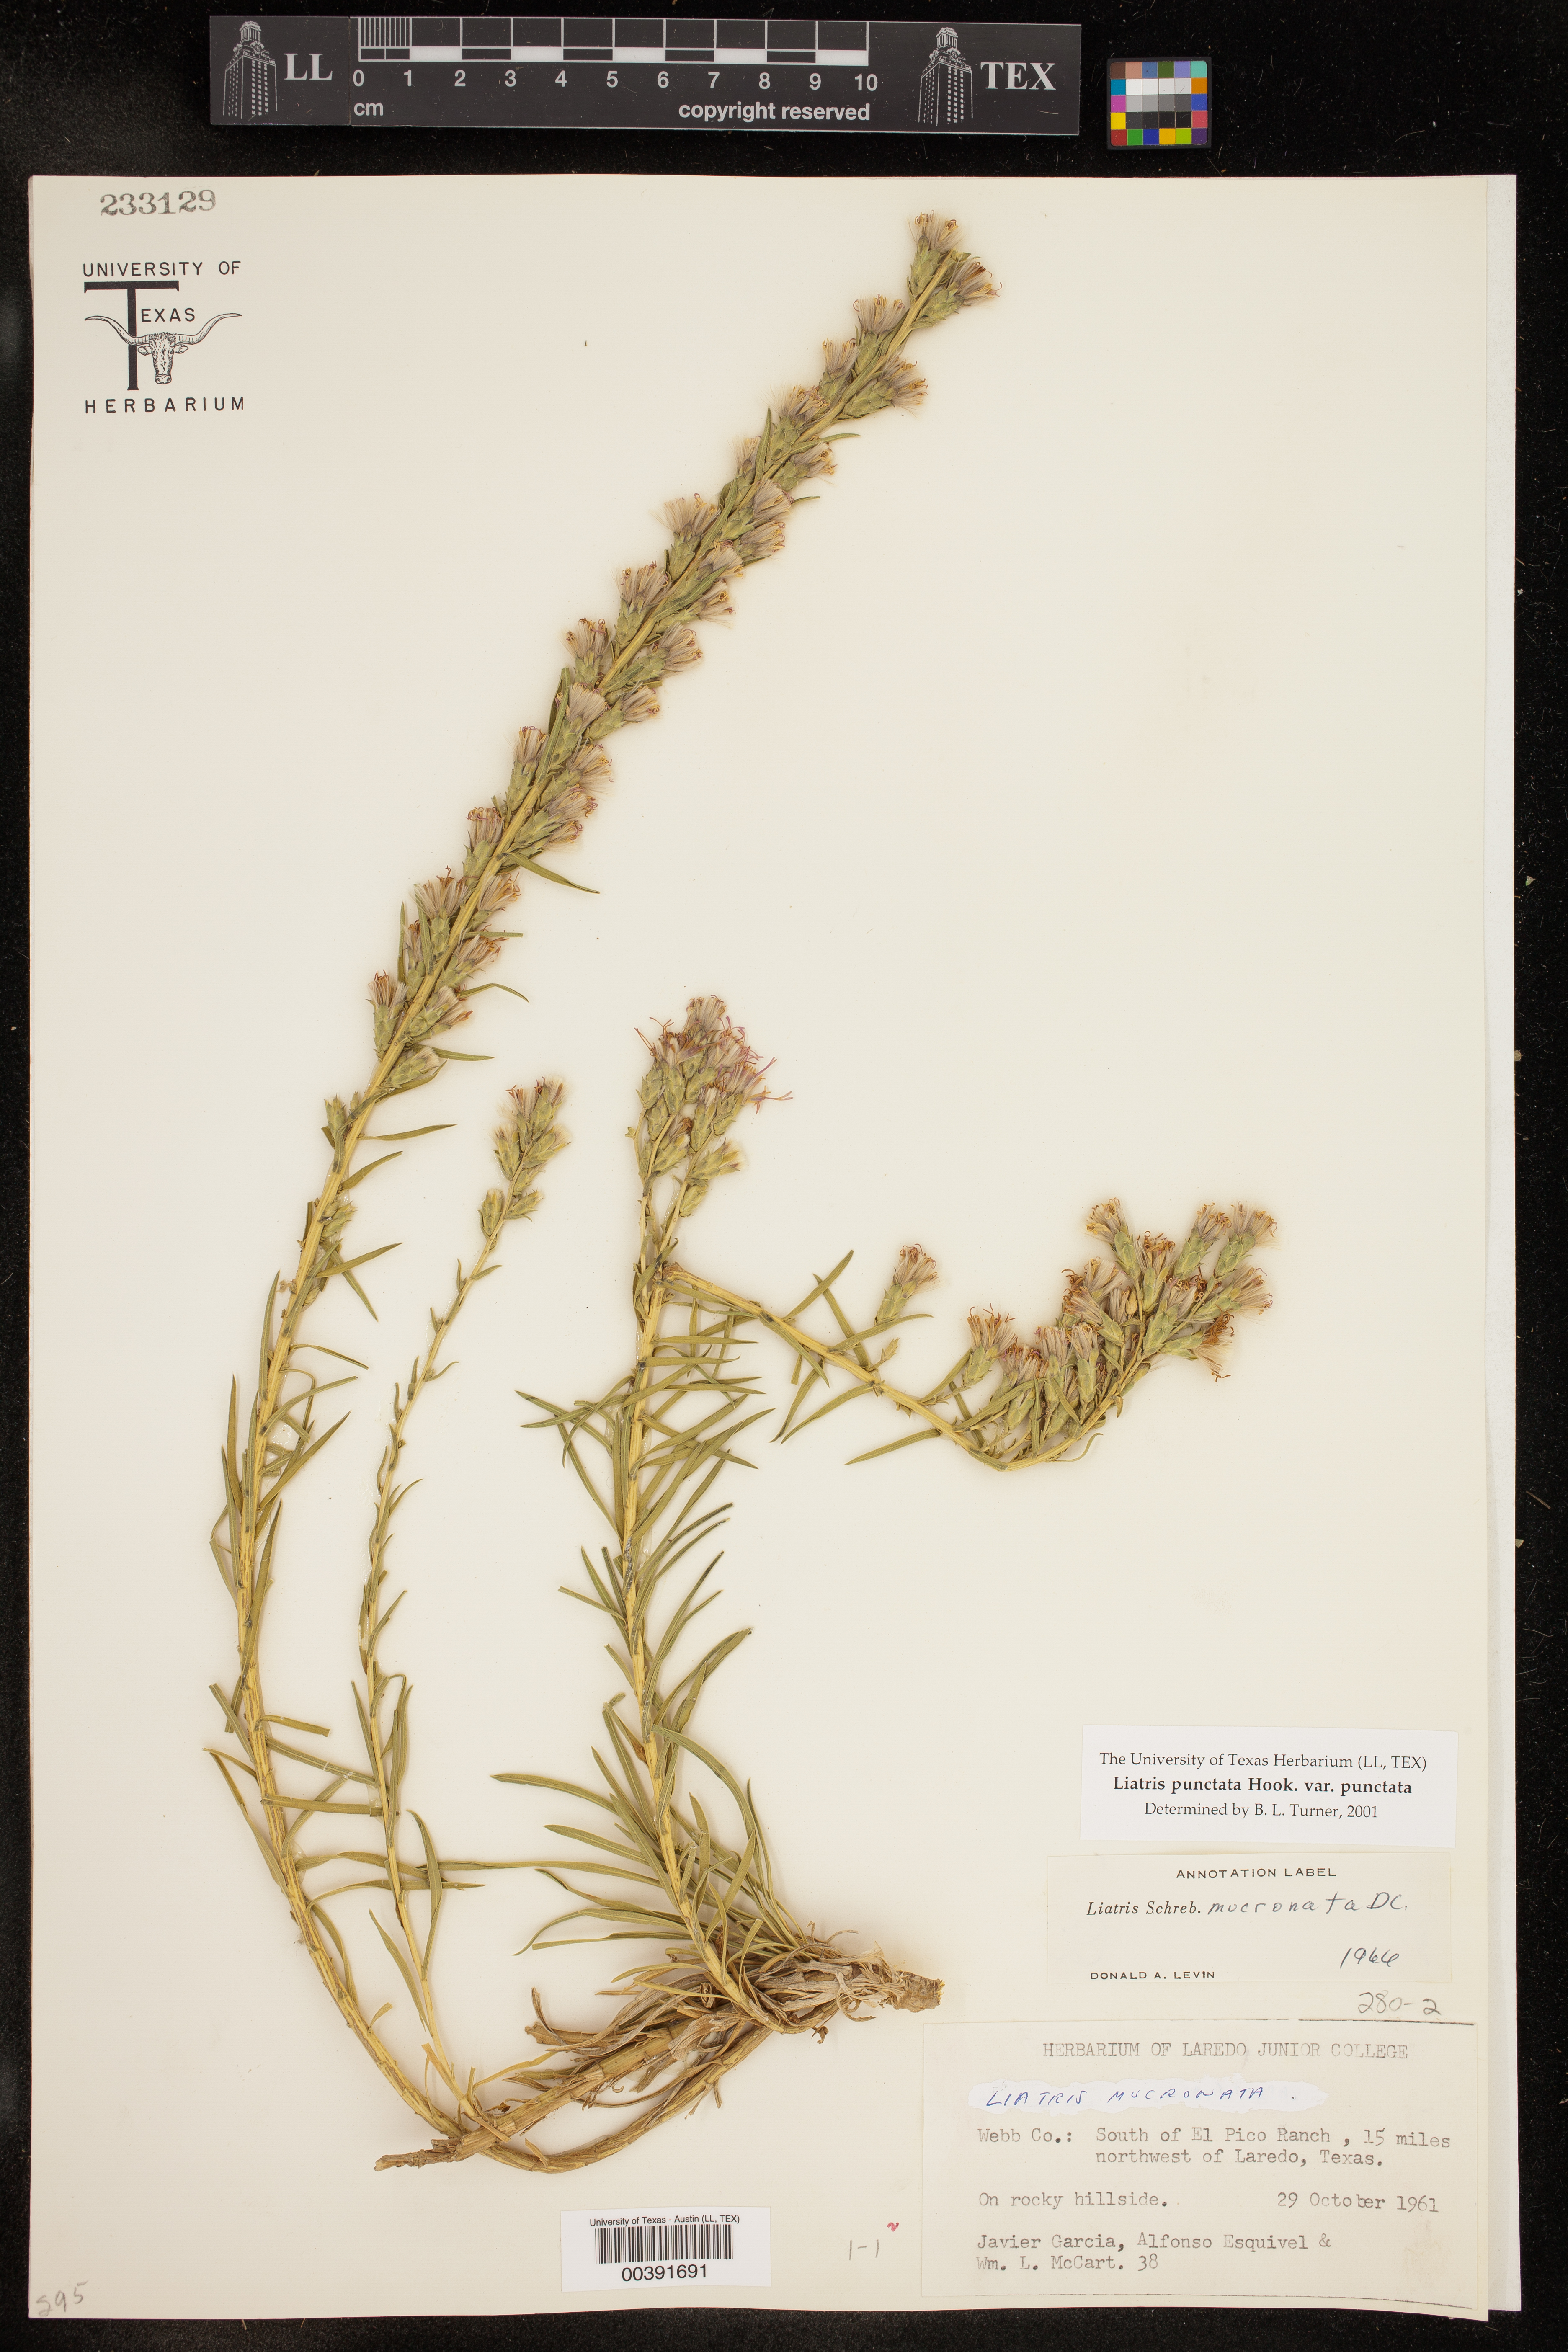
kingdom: Plantae
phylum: Tracheophyta
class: Magnoliopsida
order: Asterales
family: Asteraceae
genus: Liatris
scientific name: Liatris punctata
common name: Dotted gayfeather
